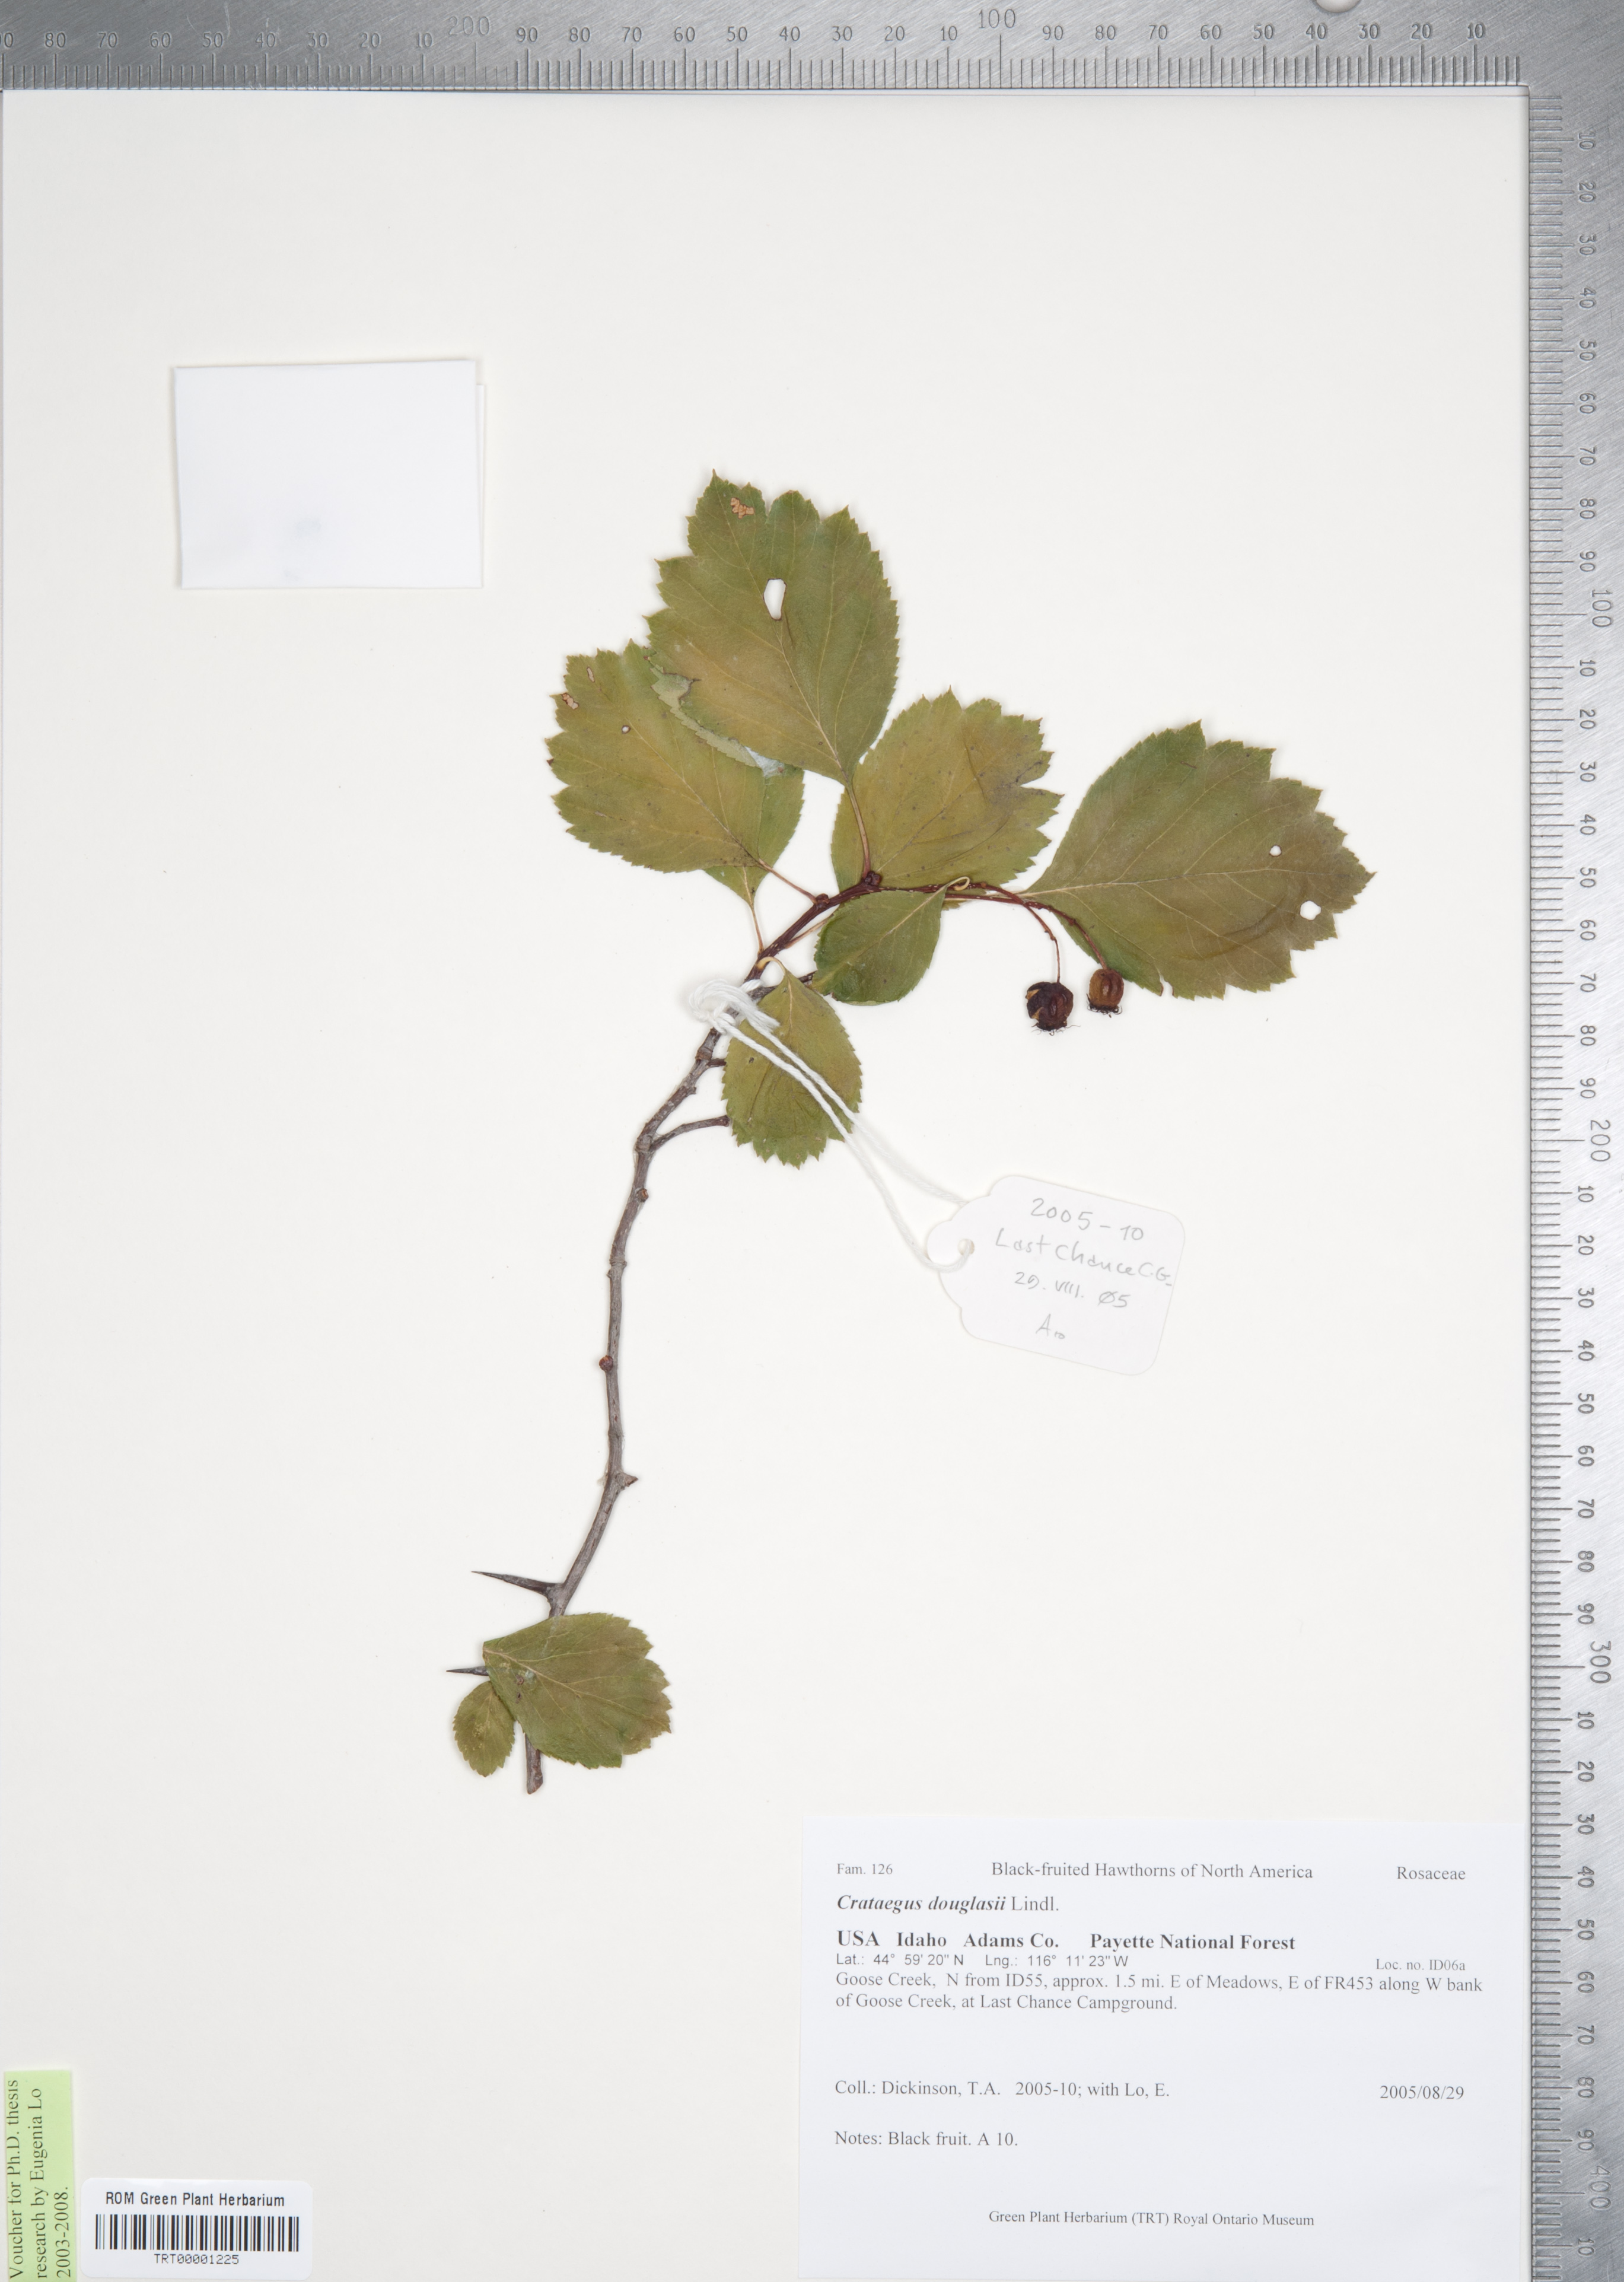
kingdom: Plantae
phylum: Tracheophyta
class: Magnoliopsida
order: Rosales
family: Rosaceae
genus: Crataegus
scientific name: Crataegus douglasii
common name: Black hawthorn
